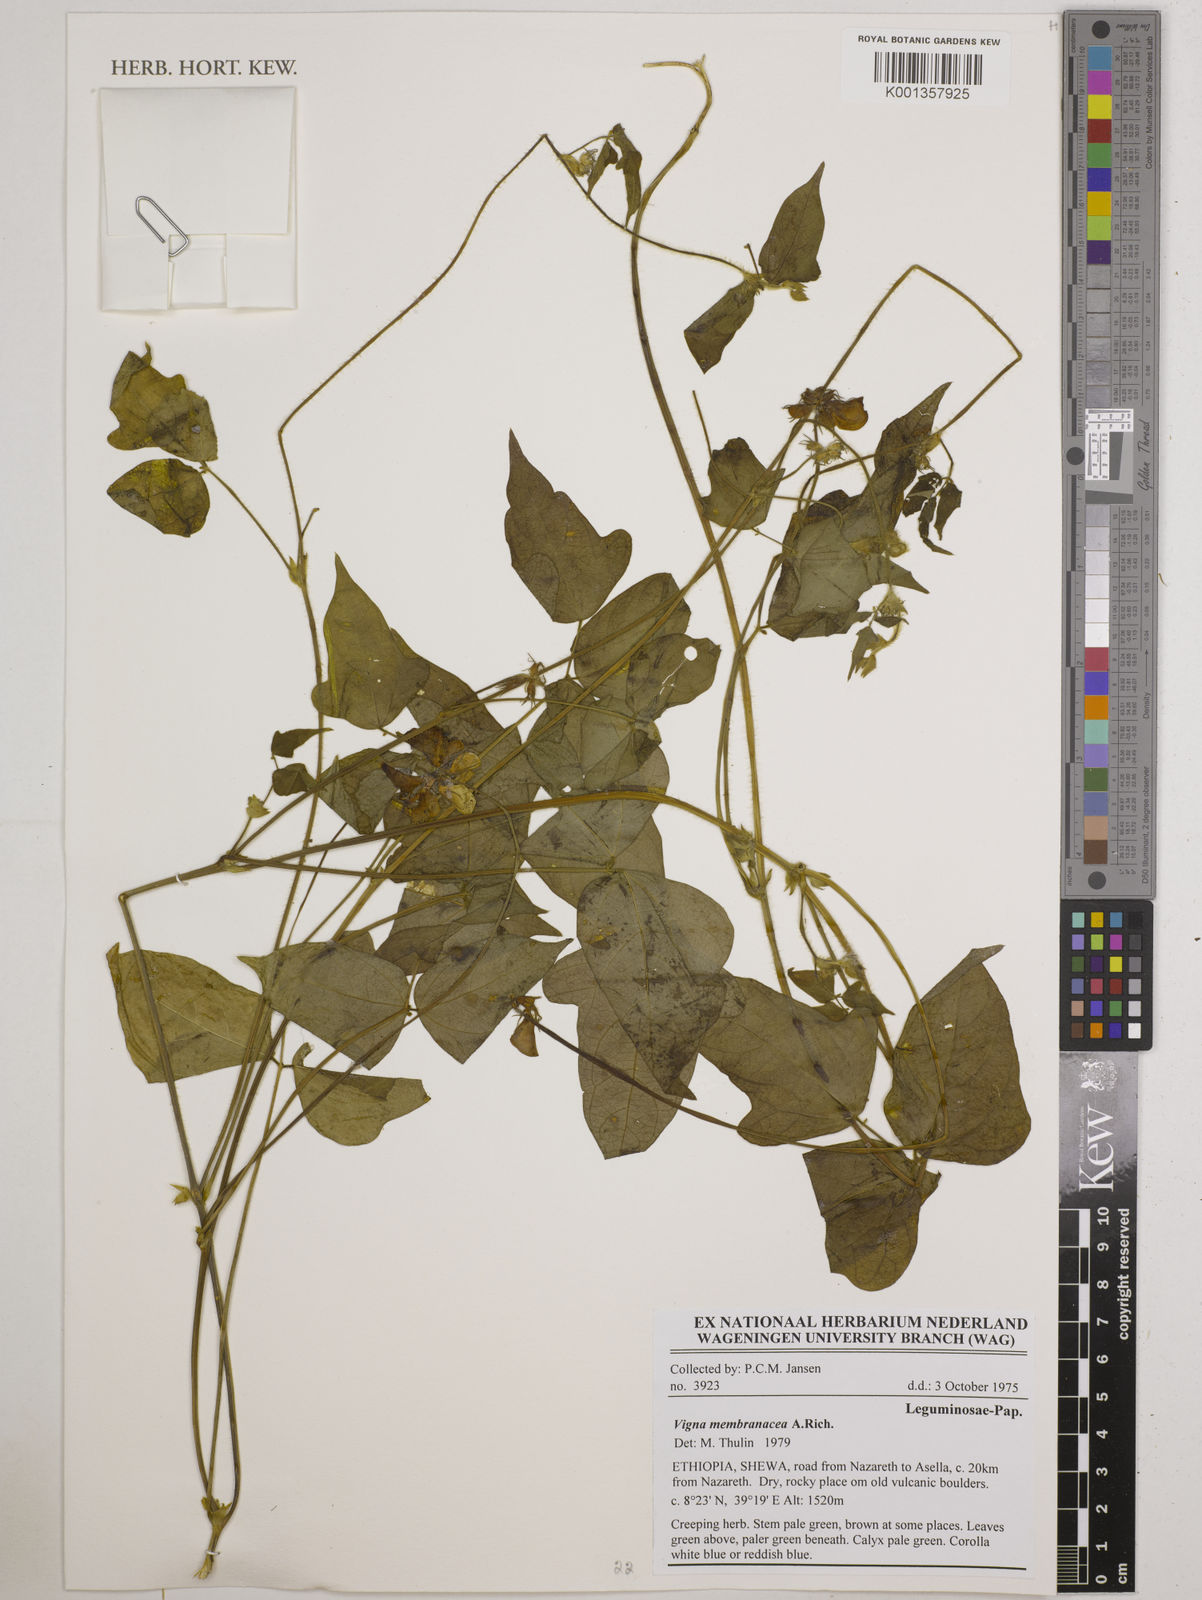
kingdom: Plantae
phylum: Tracheophyta
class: Magnoliopsida
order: Fabales
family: Fabaceae
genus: Vigna
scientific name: Vigna membranacea
